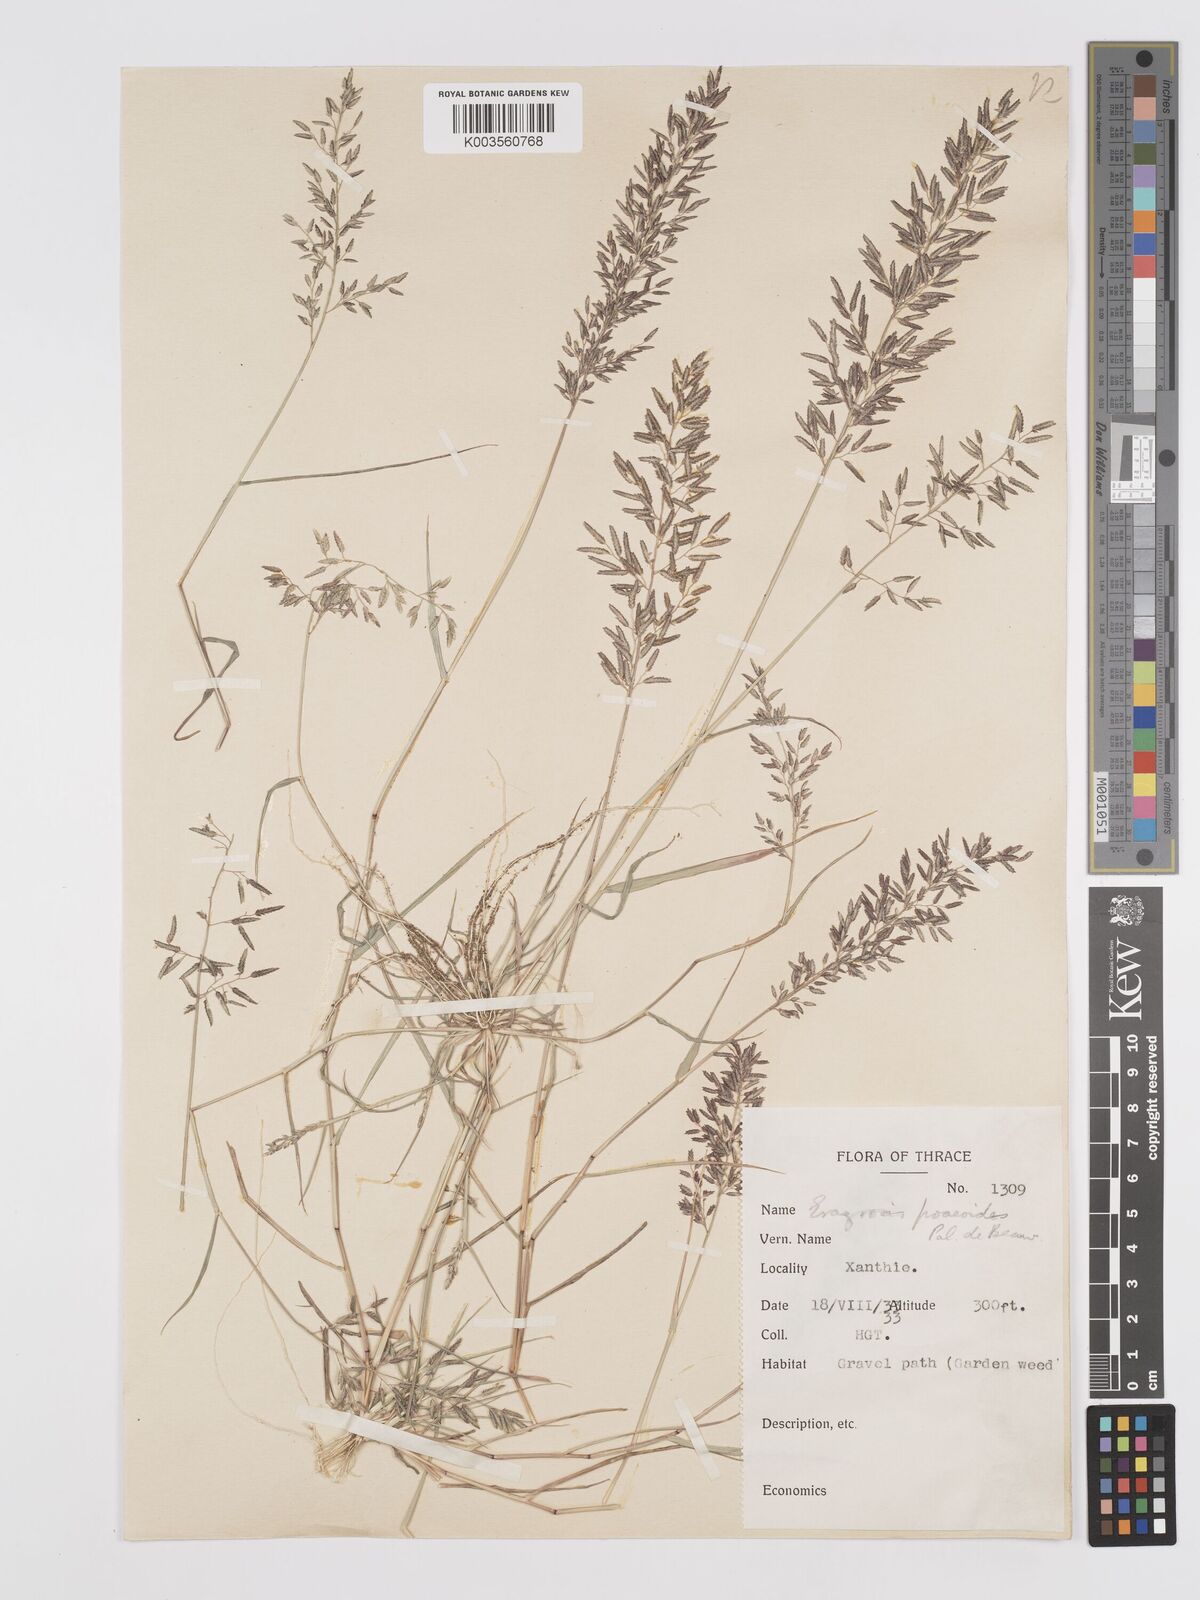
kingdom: Plantae
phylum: Tracheophyta
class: Liliopsida
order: Poales
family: Poaceae
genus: Eragrostis
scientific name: Eragrostis minor
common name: Small love-grass
